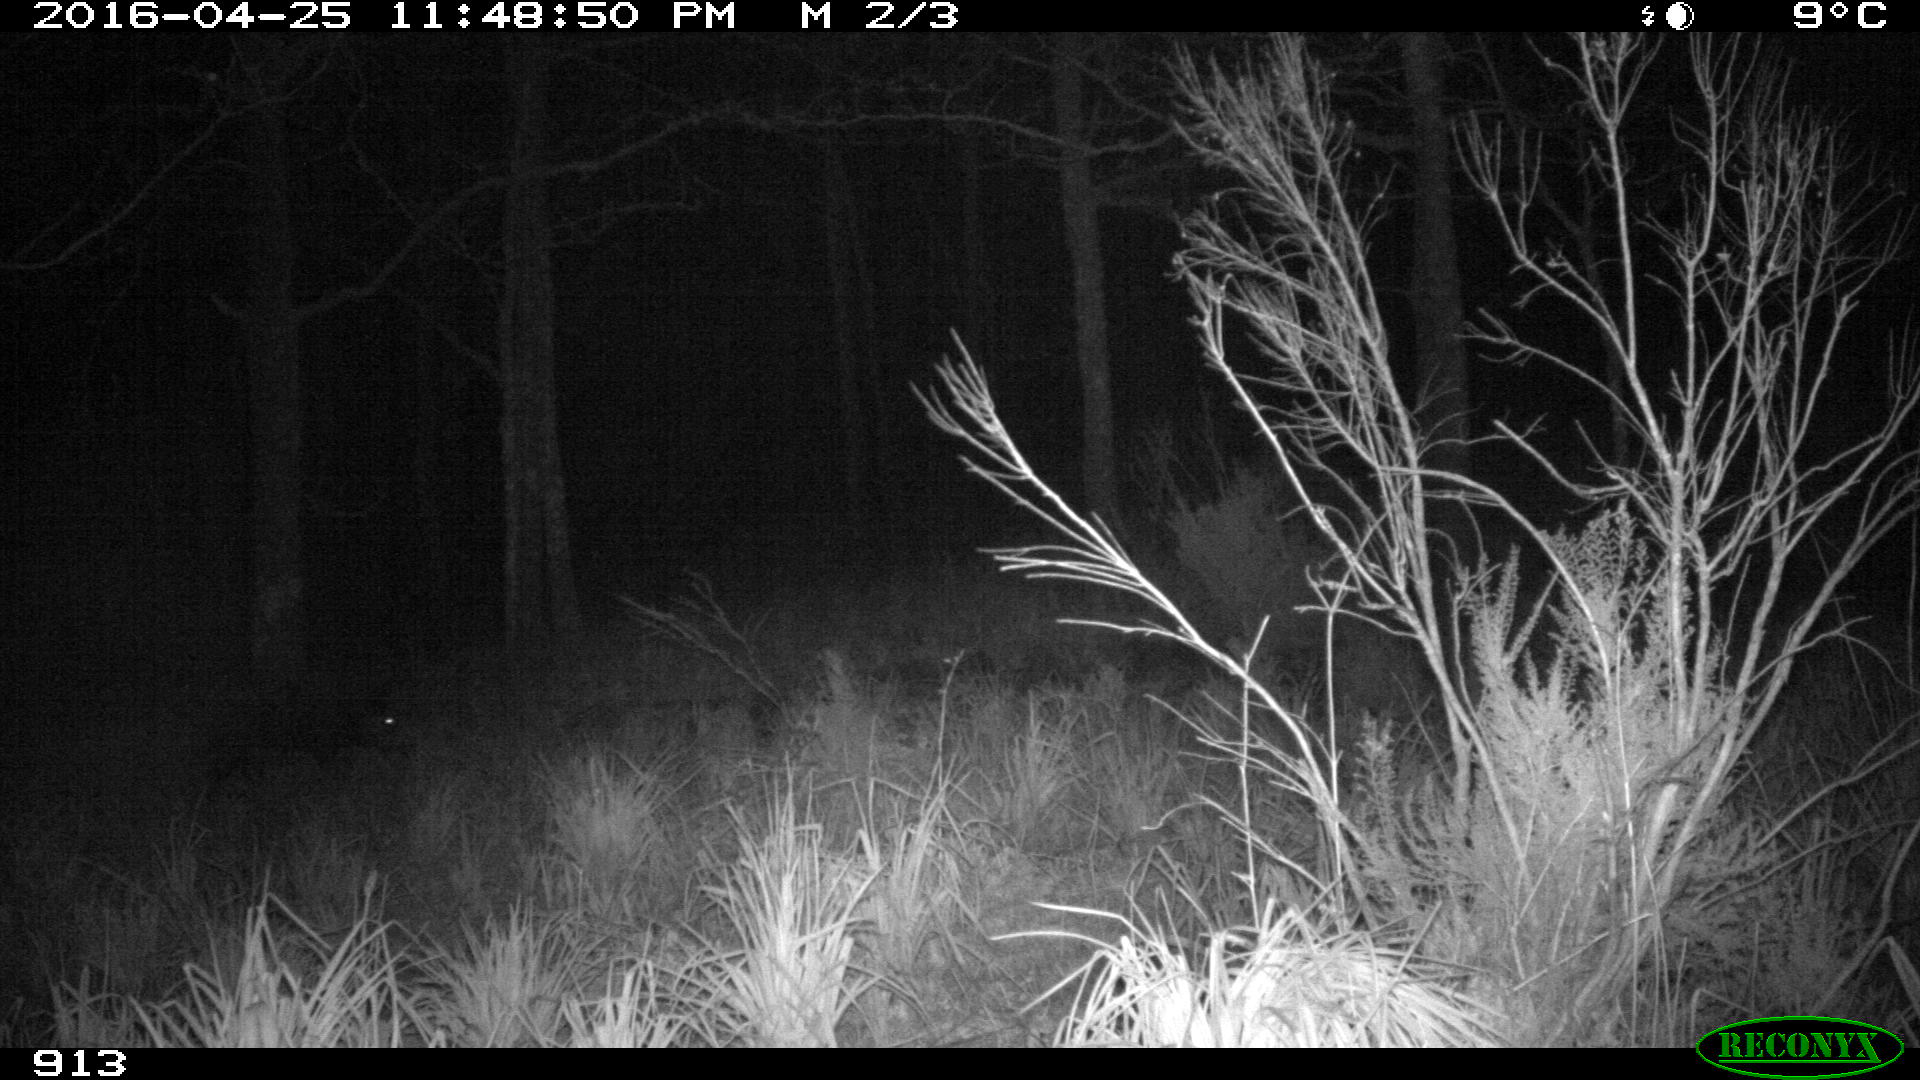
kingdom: Animalia
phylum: Chordata
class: Mammalia
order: Artiodactyla
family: Suidae
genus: Sus
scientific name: Sus scrofa
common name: Wild boar
